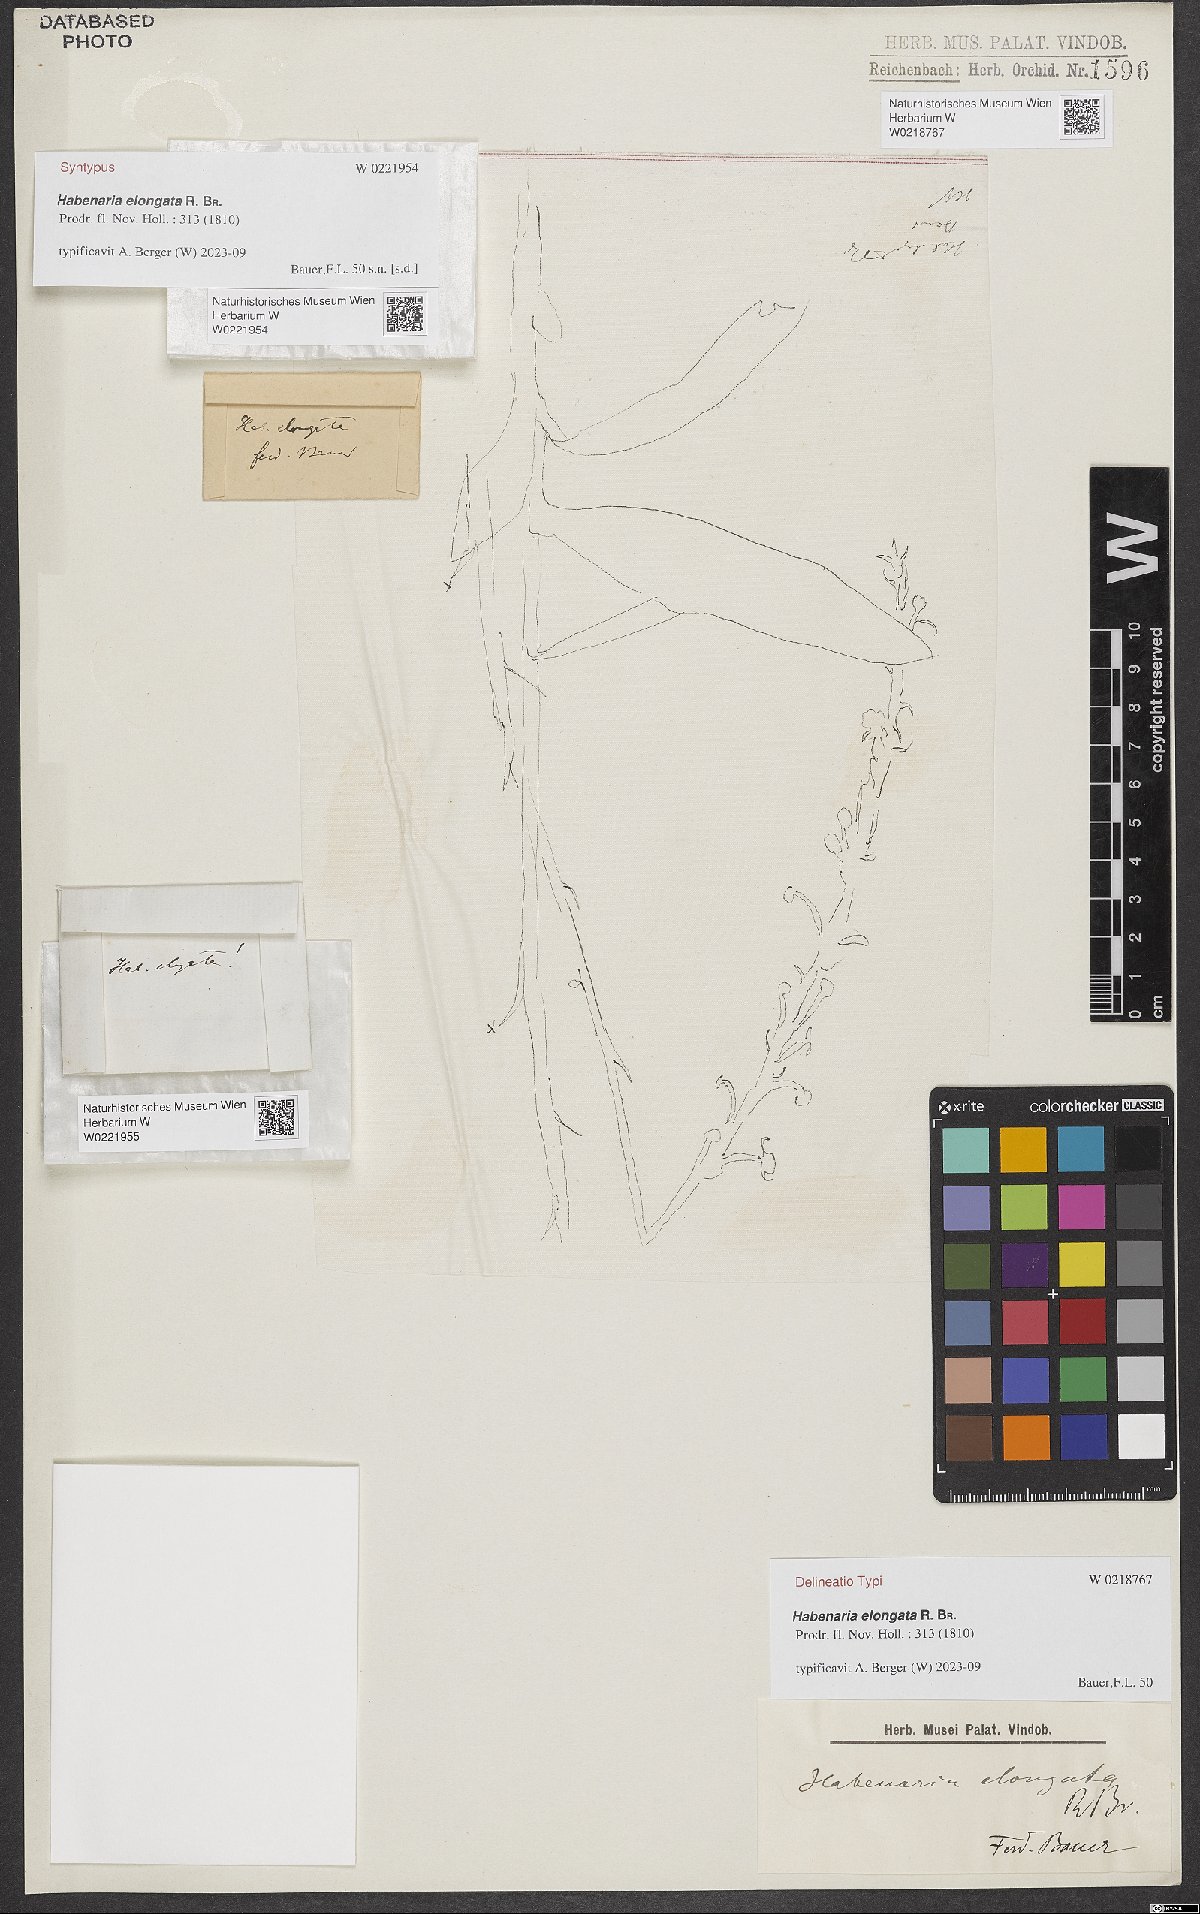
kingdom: Plantae
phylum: Tracheophyta
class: Liliopsida
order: Asparagales
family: Orchidaceae
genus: Habenaria
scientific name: Habenaria elongata
